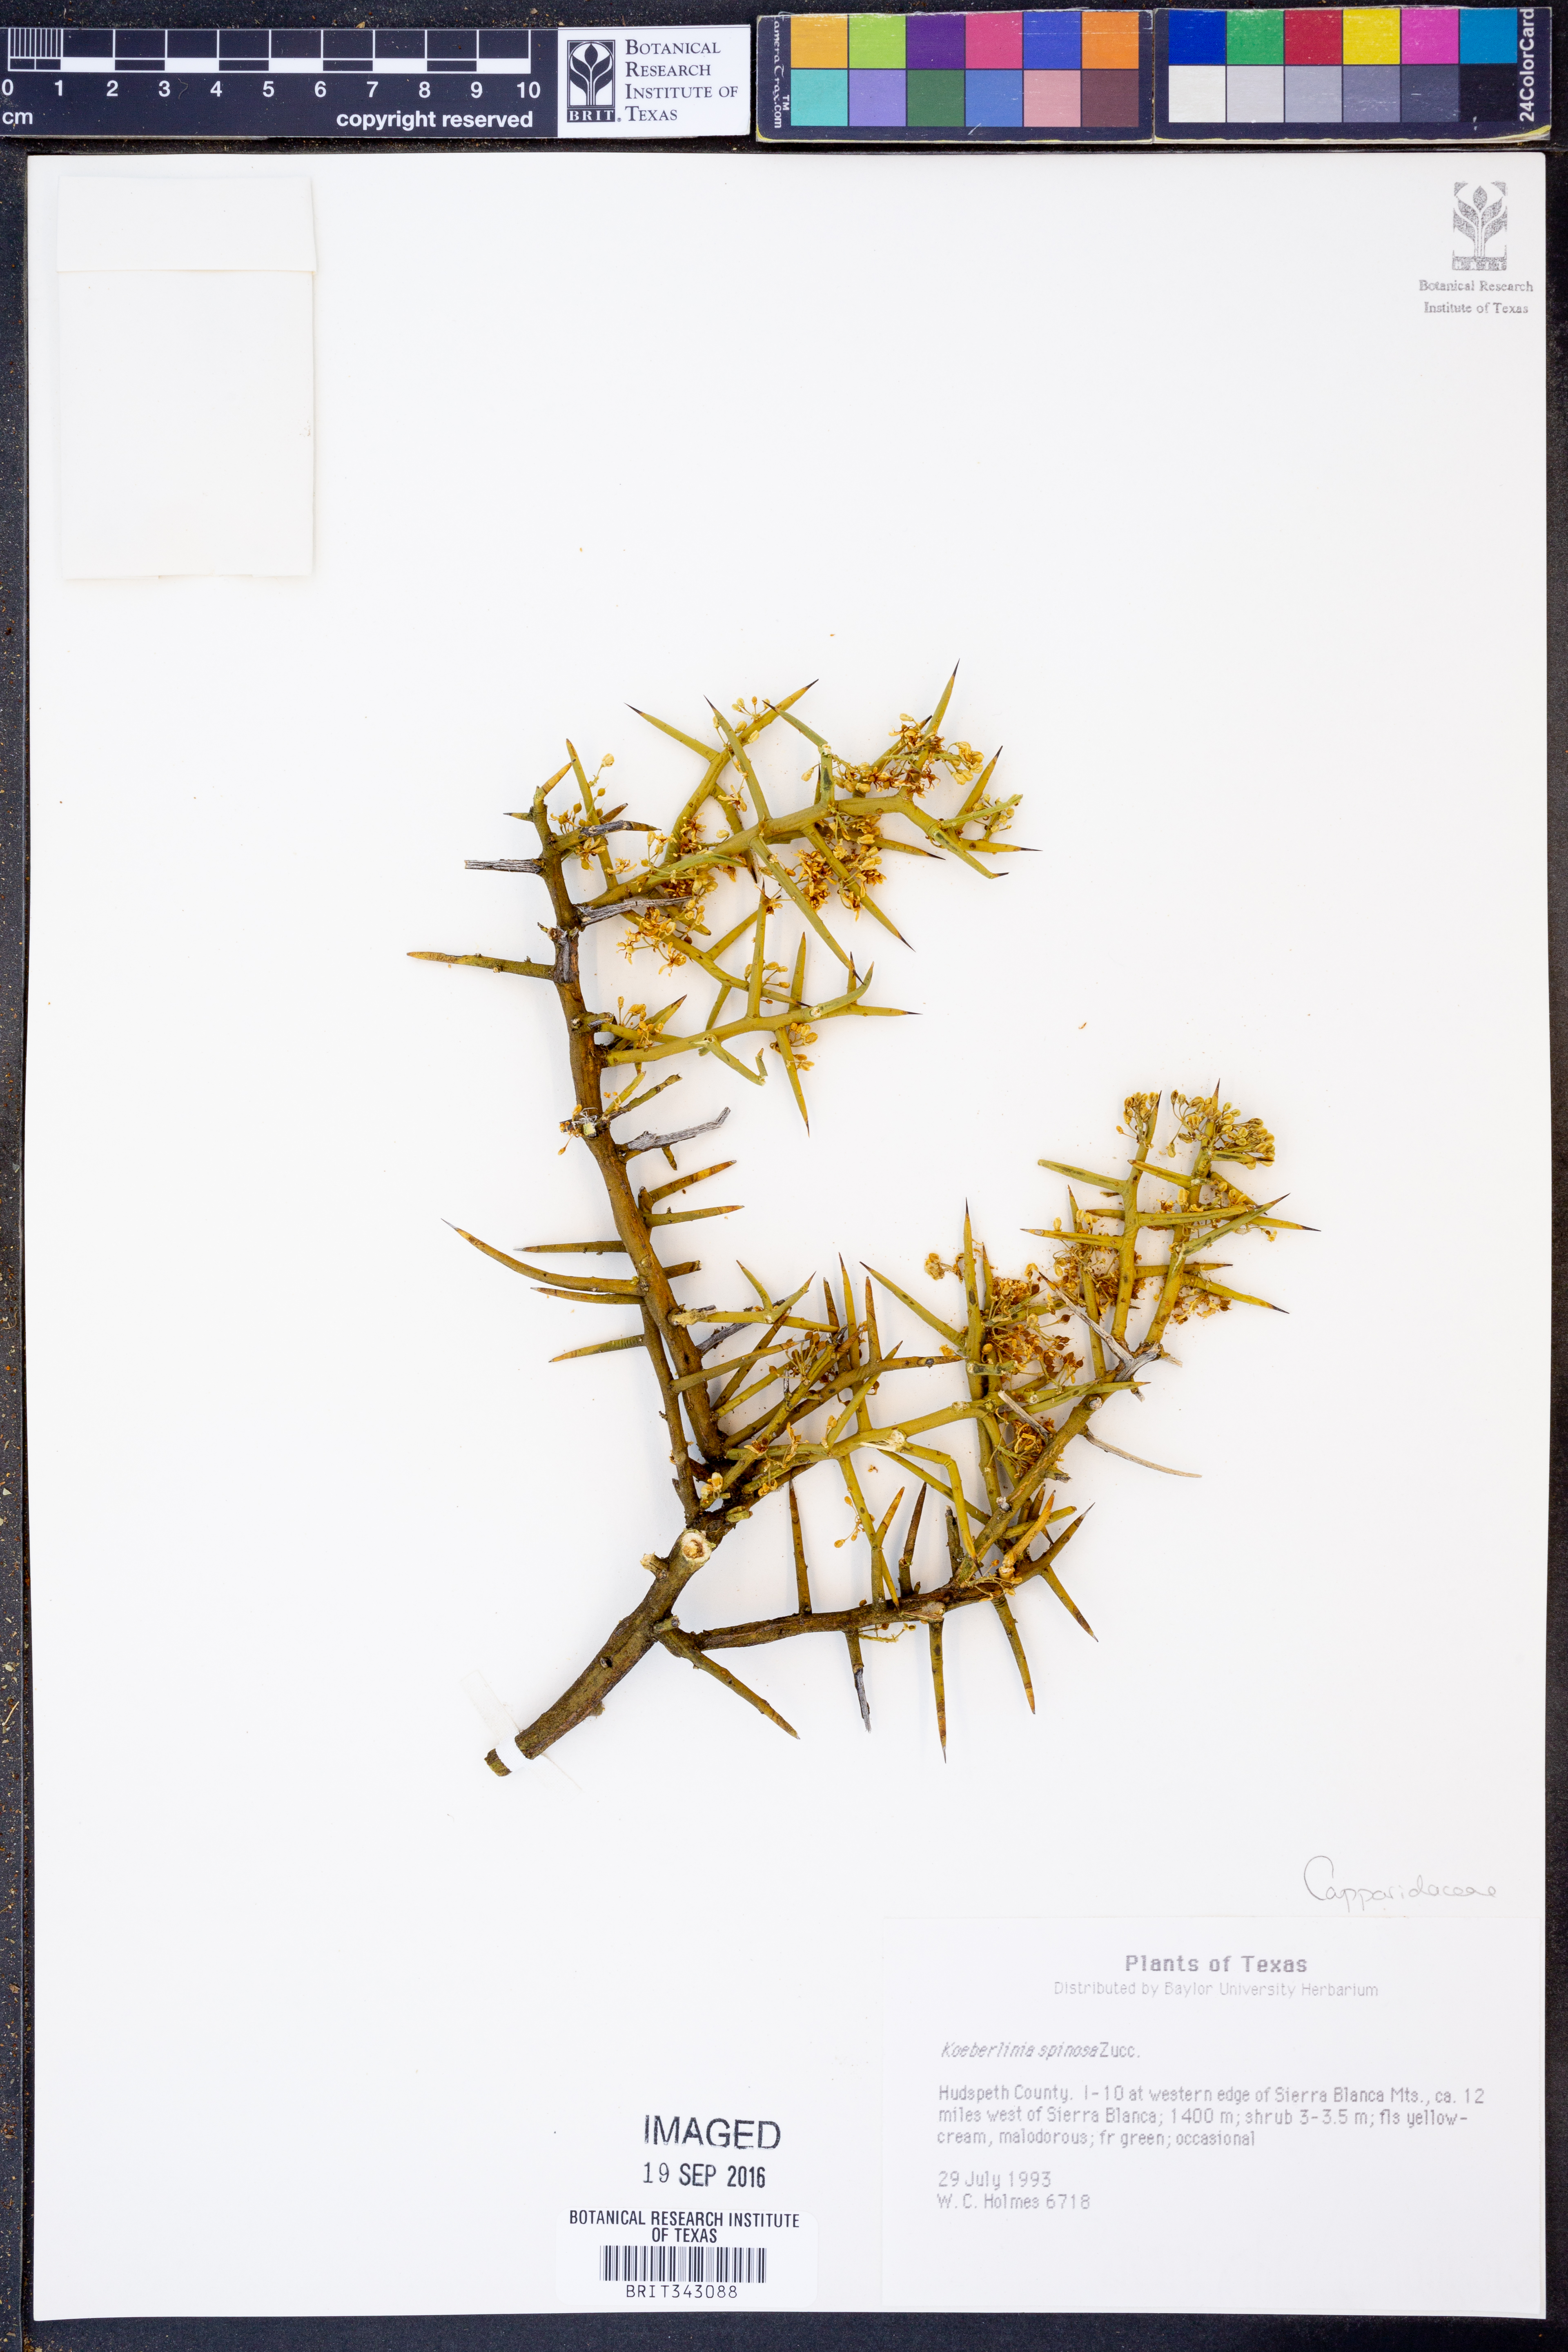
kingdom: Plantae
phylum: Tracheophyta
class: Magnoliopsida
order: Brassicales
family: Koeberliniaceae
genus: Koeberlinia
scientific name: Koeberlinia spinosa
